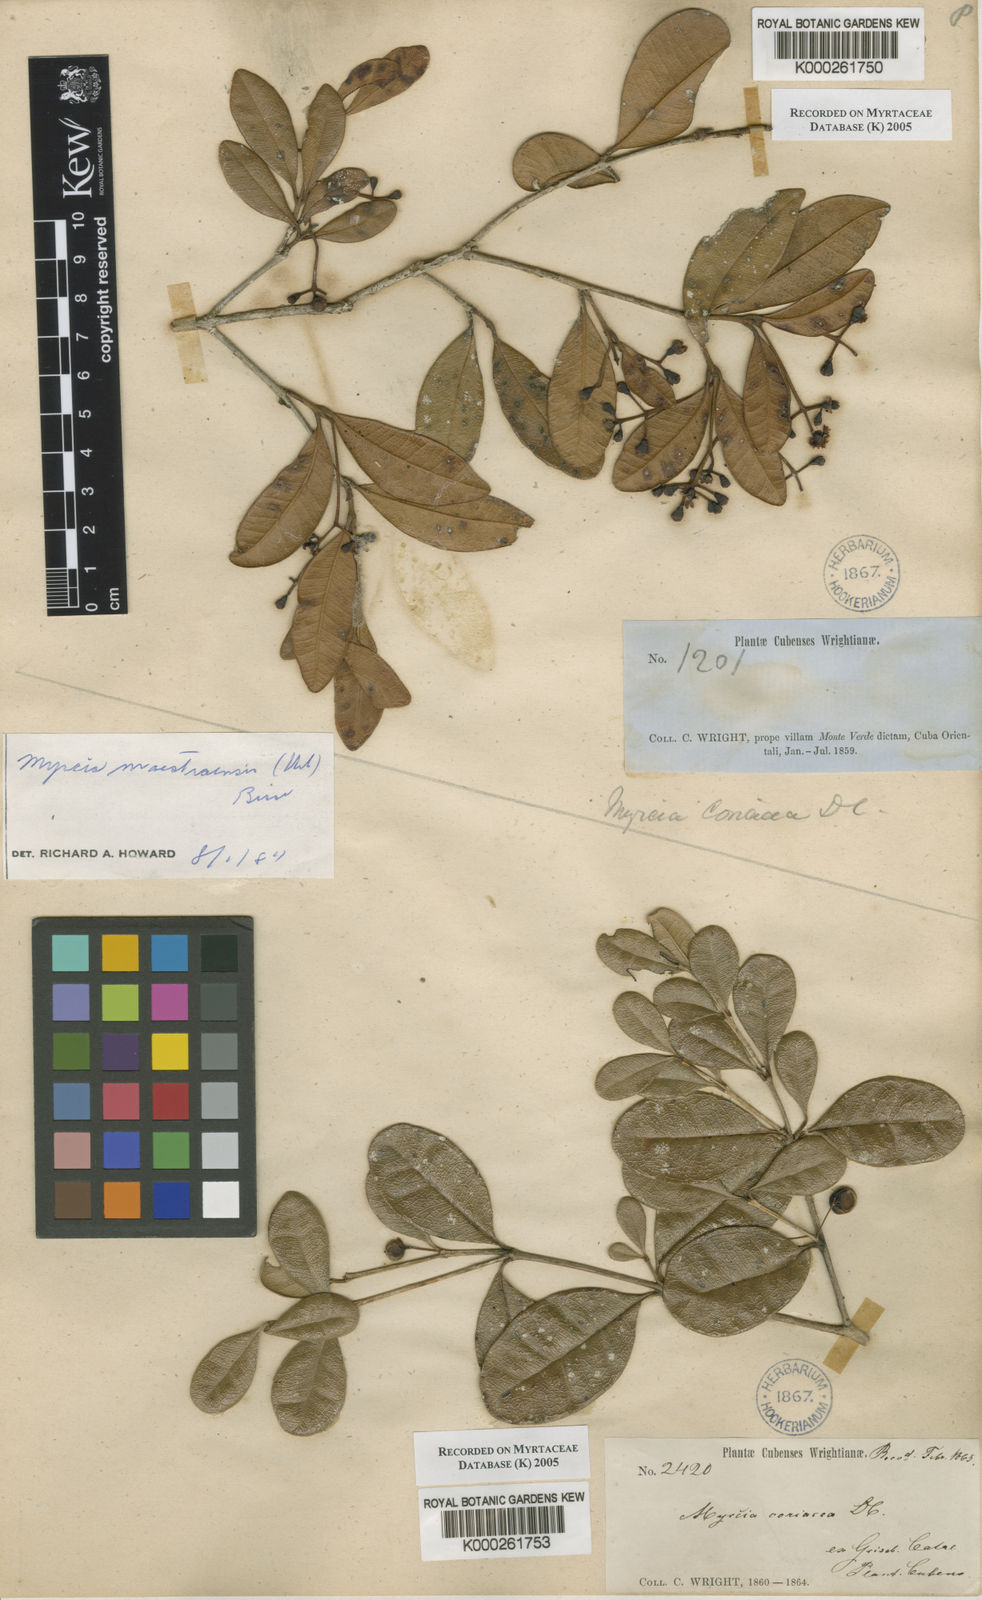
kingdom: Plantae
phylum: Tracheophyta
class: Magnoliopsida
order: Myrtales
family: Myrtaceae
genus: Myrcia
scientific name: Myrcia guianensis
